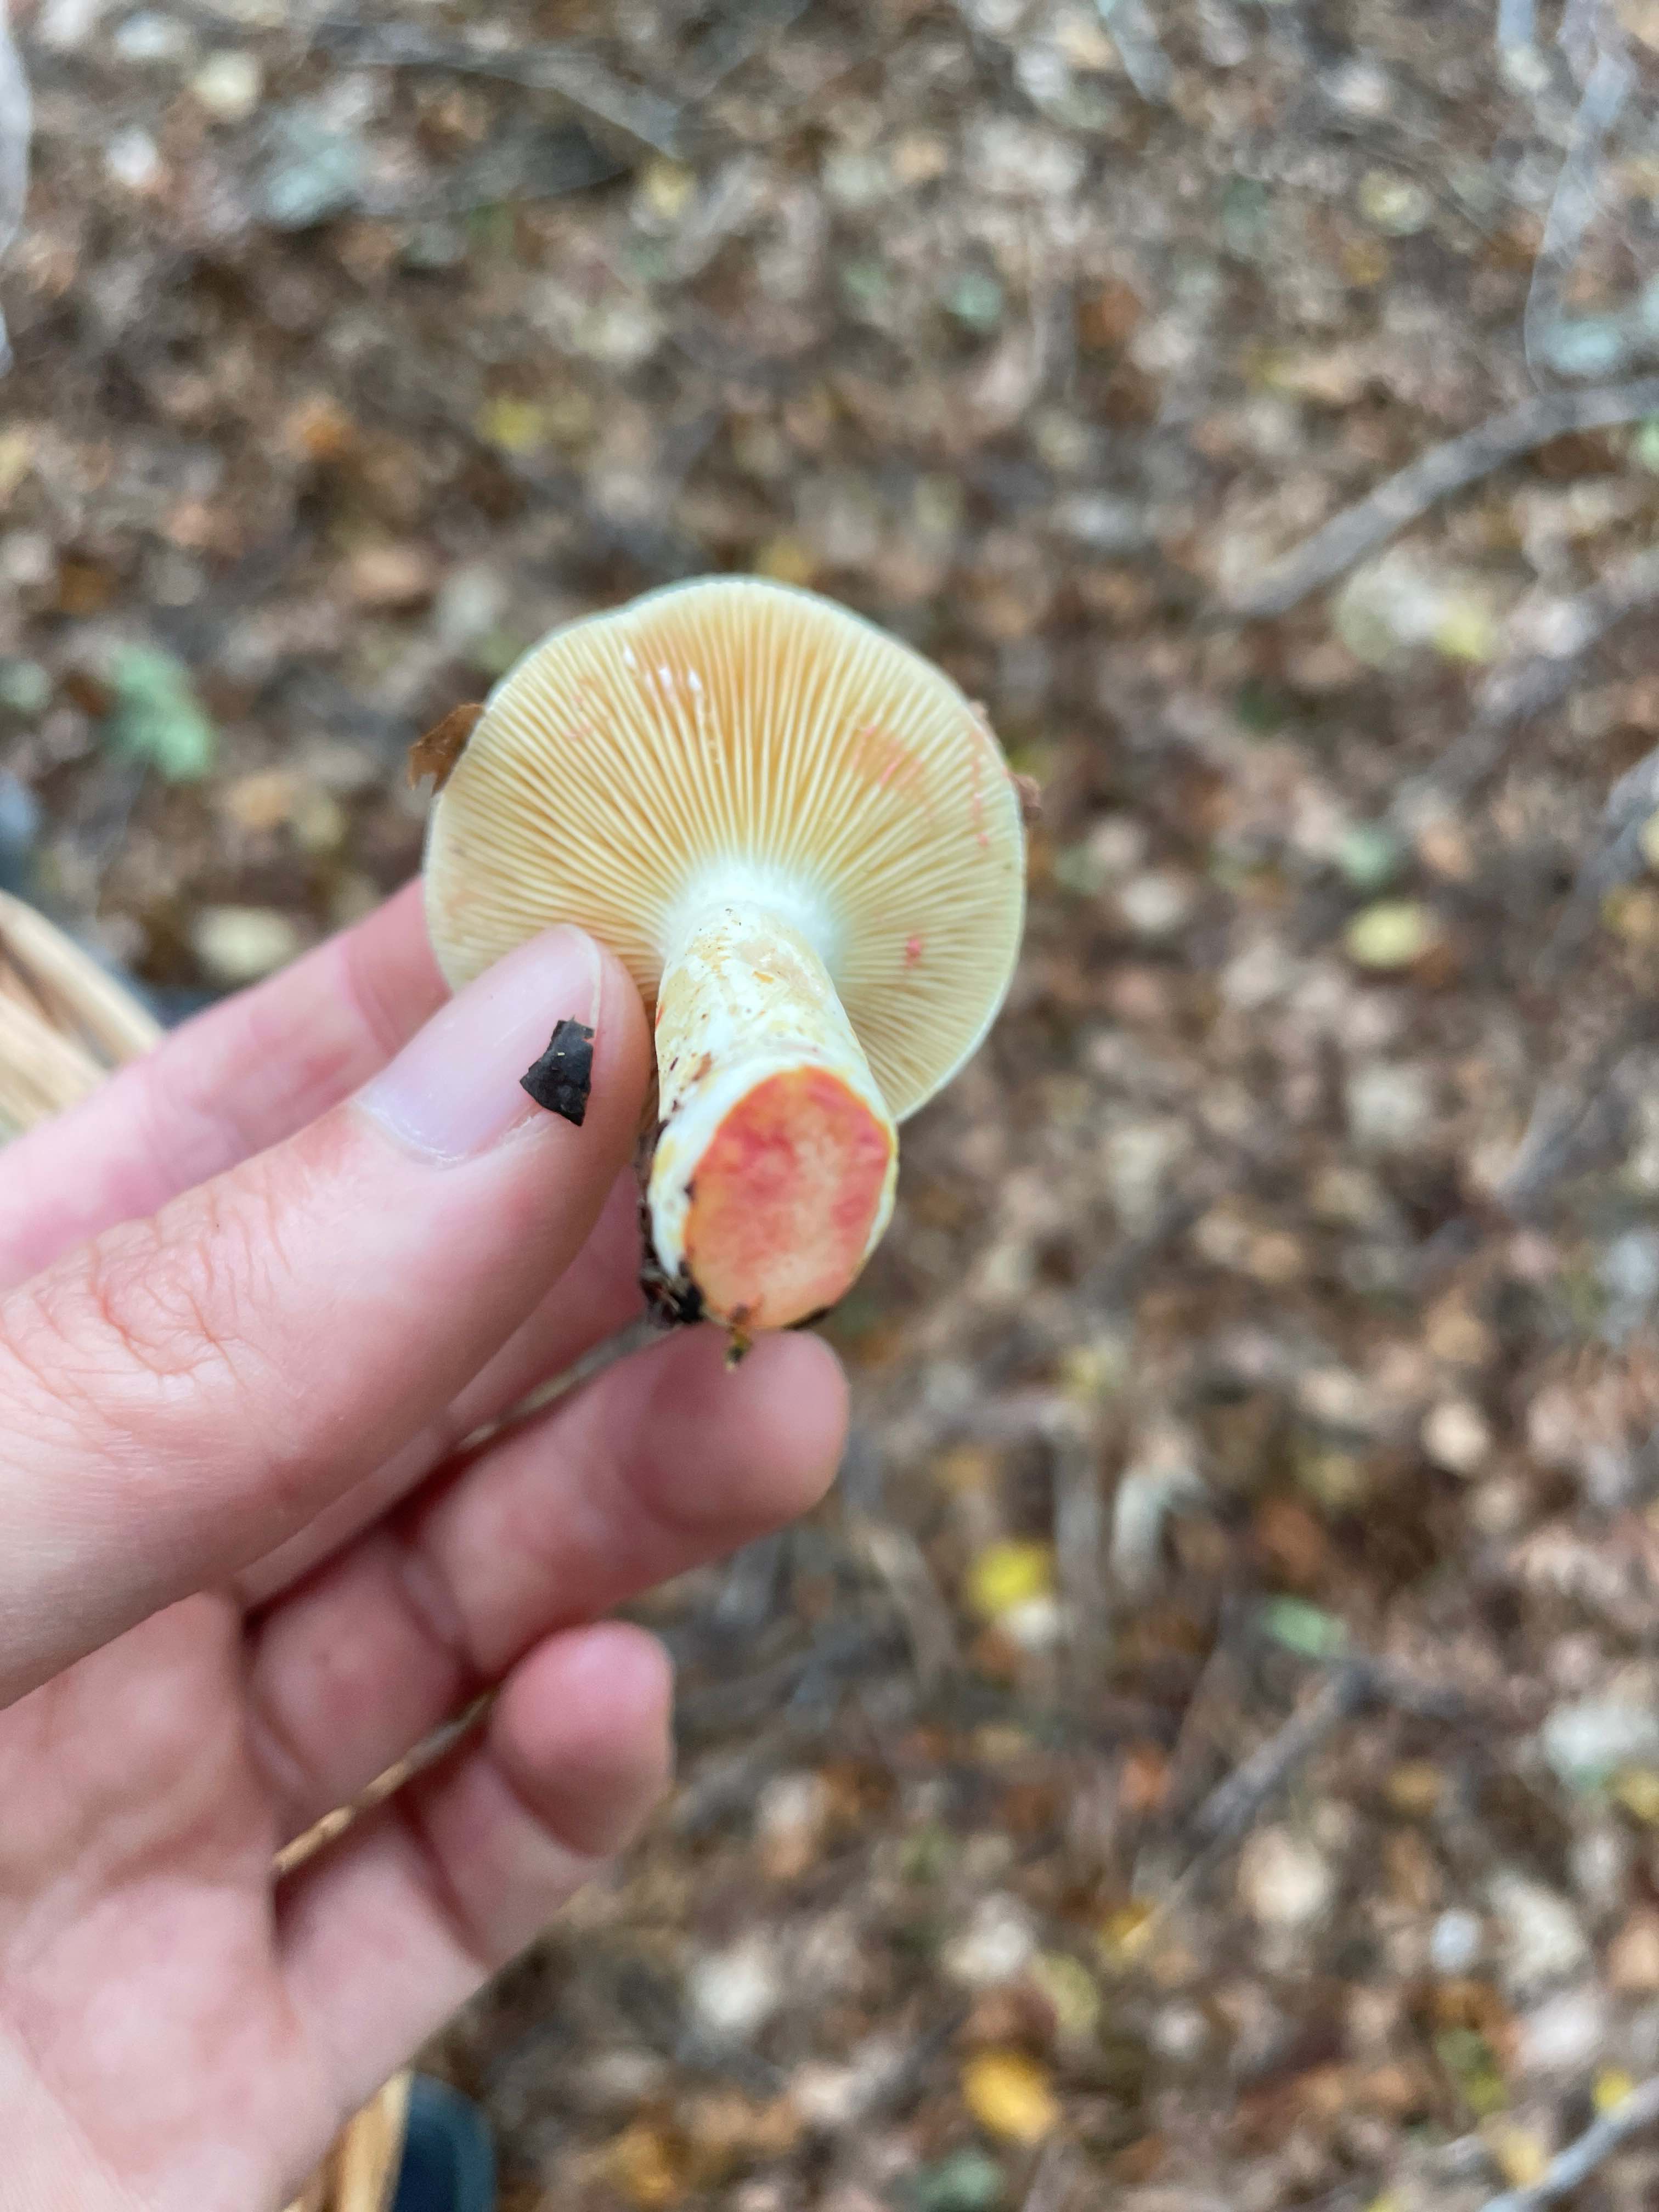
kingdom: Fungi
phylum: Basidiomycota
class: Agaricomycetes
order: Russulales
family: Russulaceae
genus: Lactarius
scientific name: Lactarius acris
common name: rosamælket mælkehat
